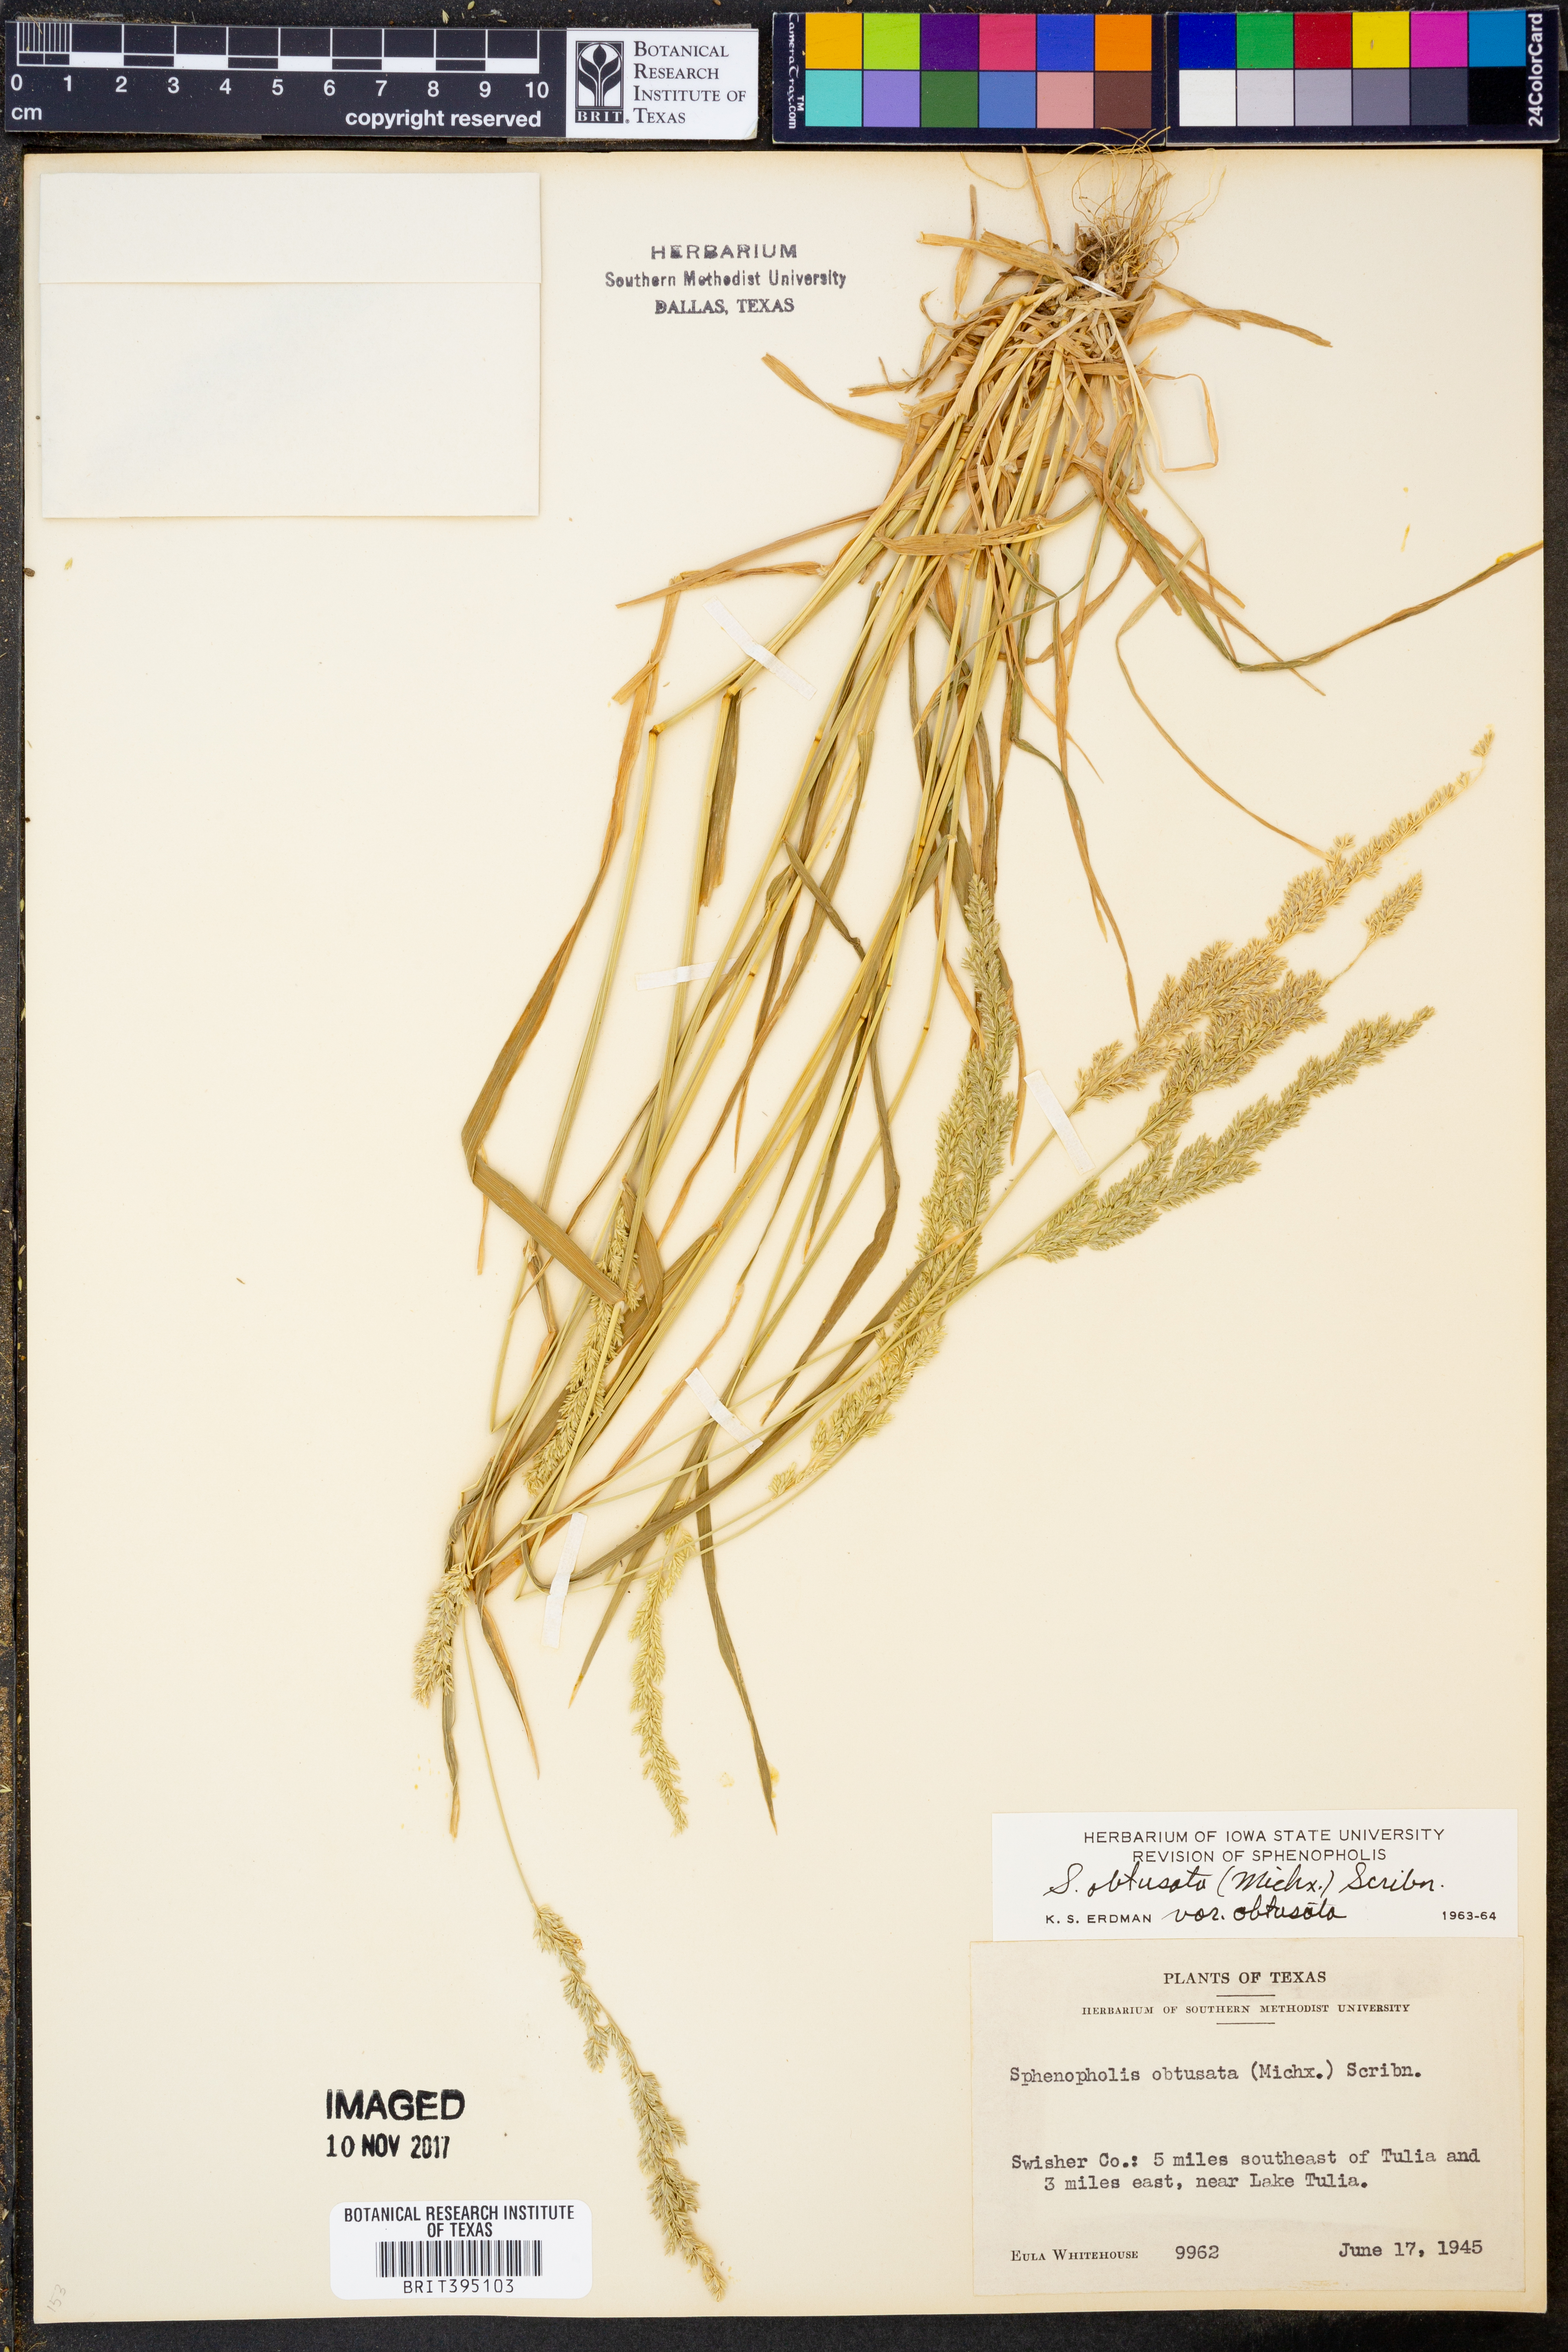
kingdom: Plantae
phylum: Tracheophyta
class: Liliopsida
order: Poales
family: Poaceae
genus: Sphenopholis
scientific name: Sphenopholis obtusata
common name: Prairie grass
